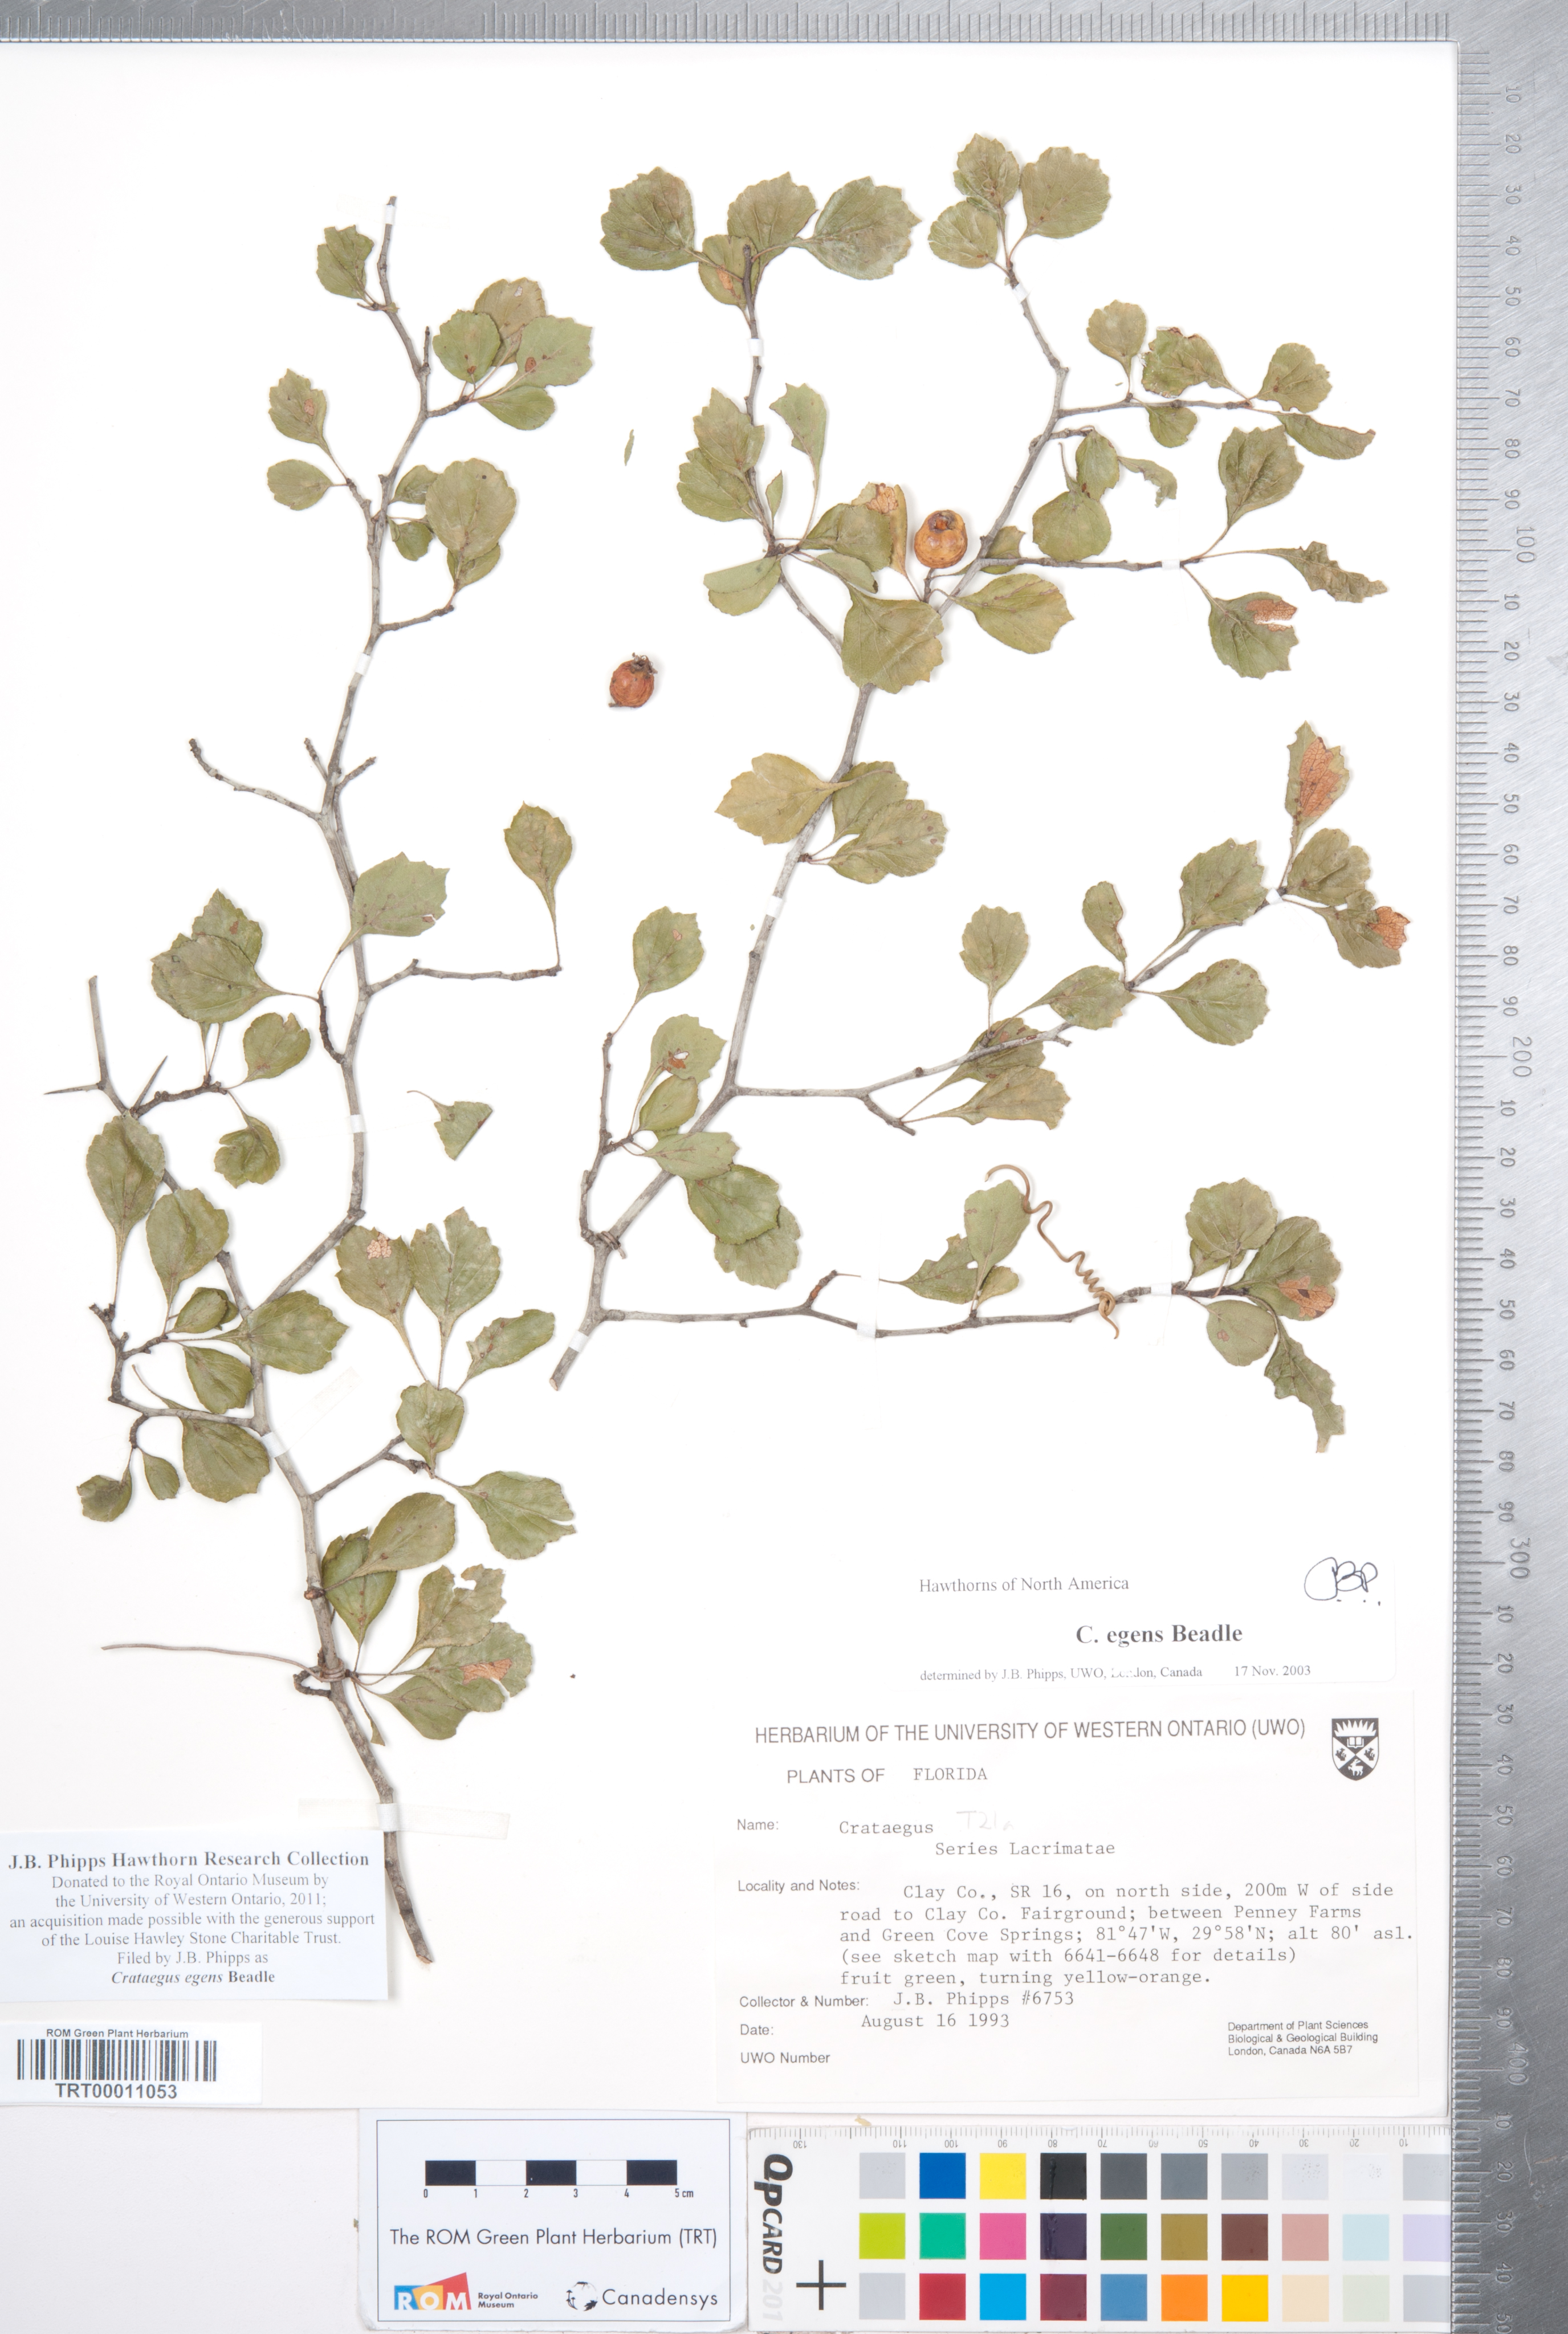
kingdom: Plantae
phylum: Tracheophyta
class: Magnoliopsida
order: Rosales
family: Rosaceae
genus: Crataegus
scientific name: Crataegus senta
